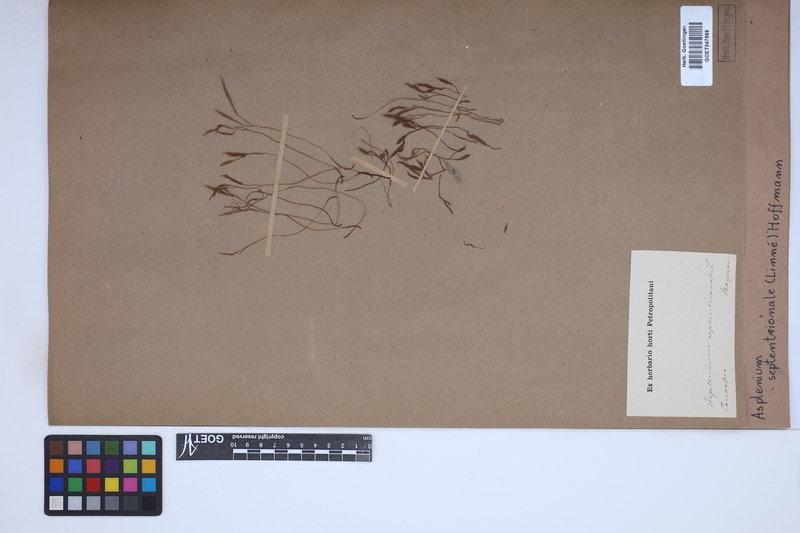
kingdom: Plantae
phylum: Tracheophyta
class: Polypodiopsida
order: Polypodiales
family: Aspleniaceae
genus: Asplenium
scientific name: Asplenium septentrionale
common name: Forked spleenwort
